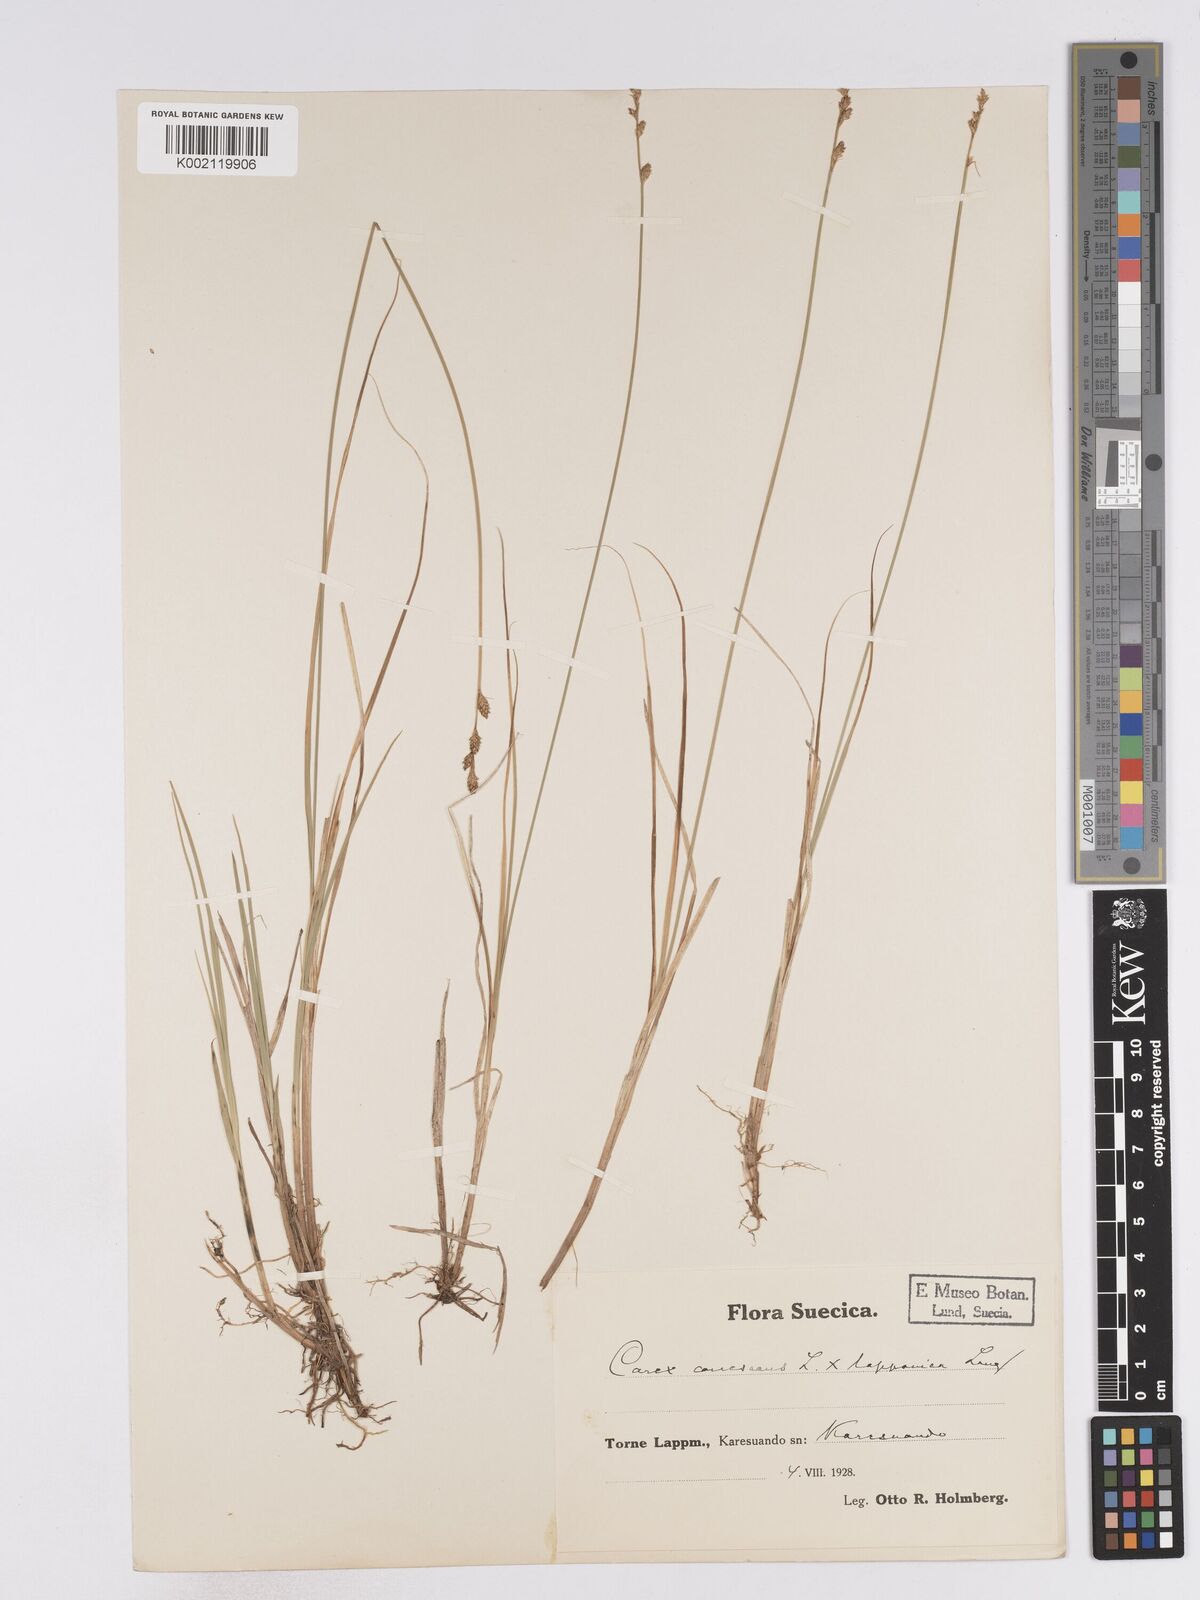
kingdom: Plantae
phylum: Tracheophyta
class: Liliopsida
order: Poales
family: Cyperaceae
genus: Carex
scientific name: Carex curta
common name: White sedge
